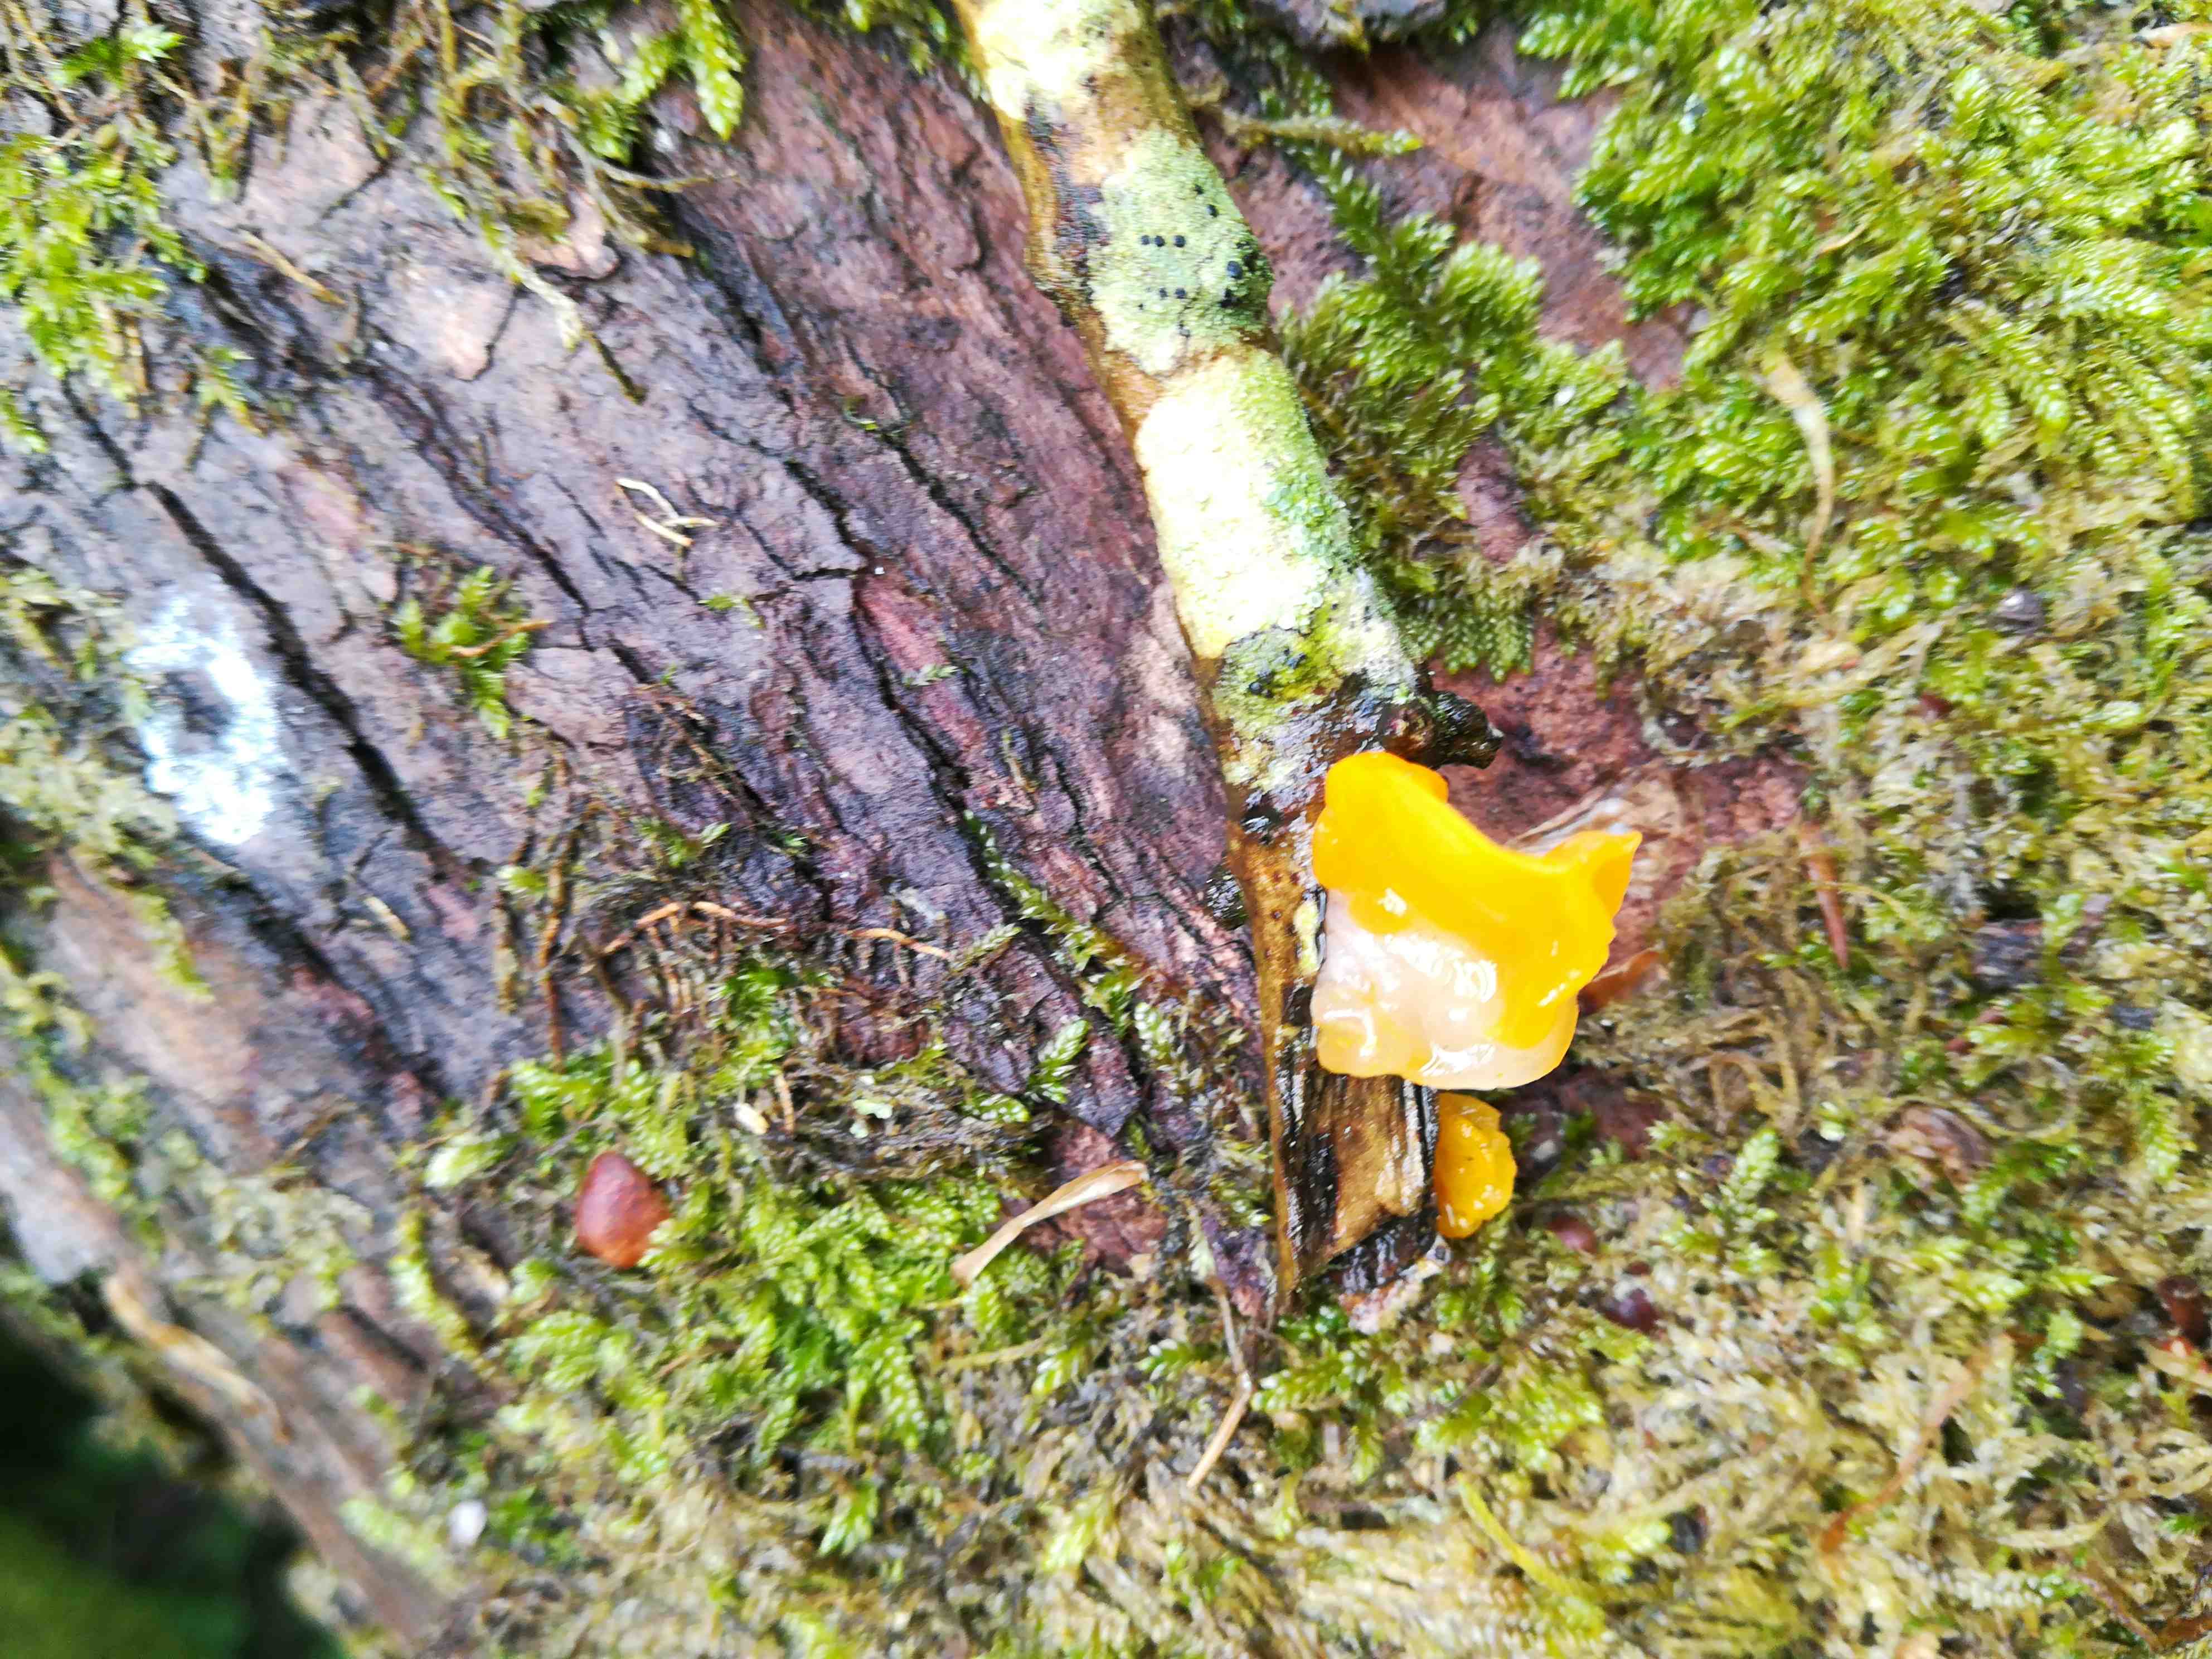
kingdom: Fungi
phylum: Basidiomycota
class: Tremellomycetes
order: Tremellales
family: Tremellaceae
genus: Tremella
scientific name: Tremella mesenterica
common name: gul bævresvamp
